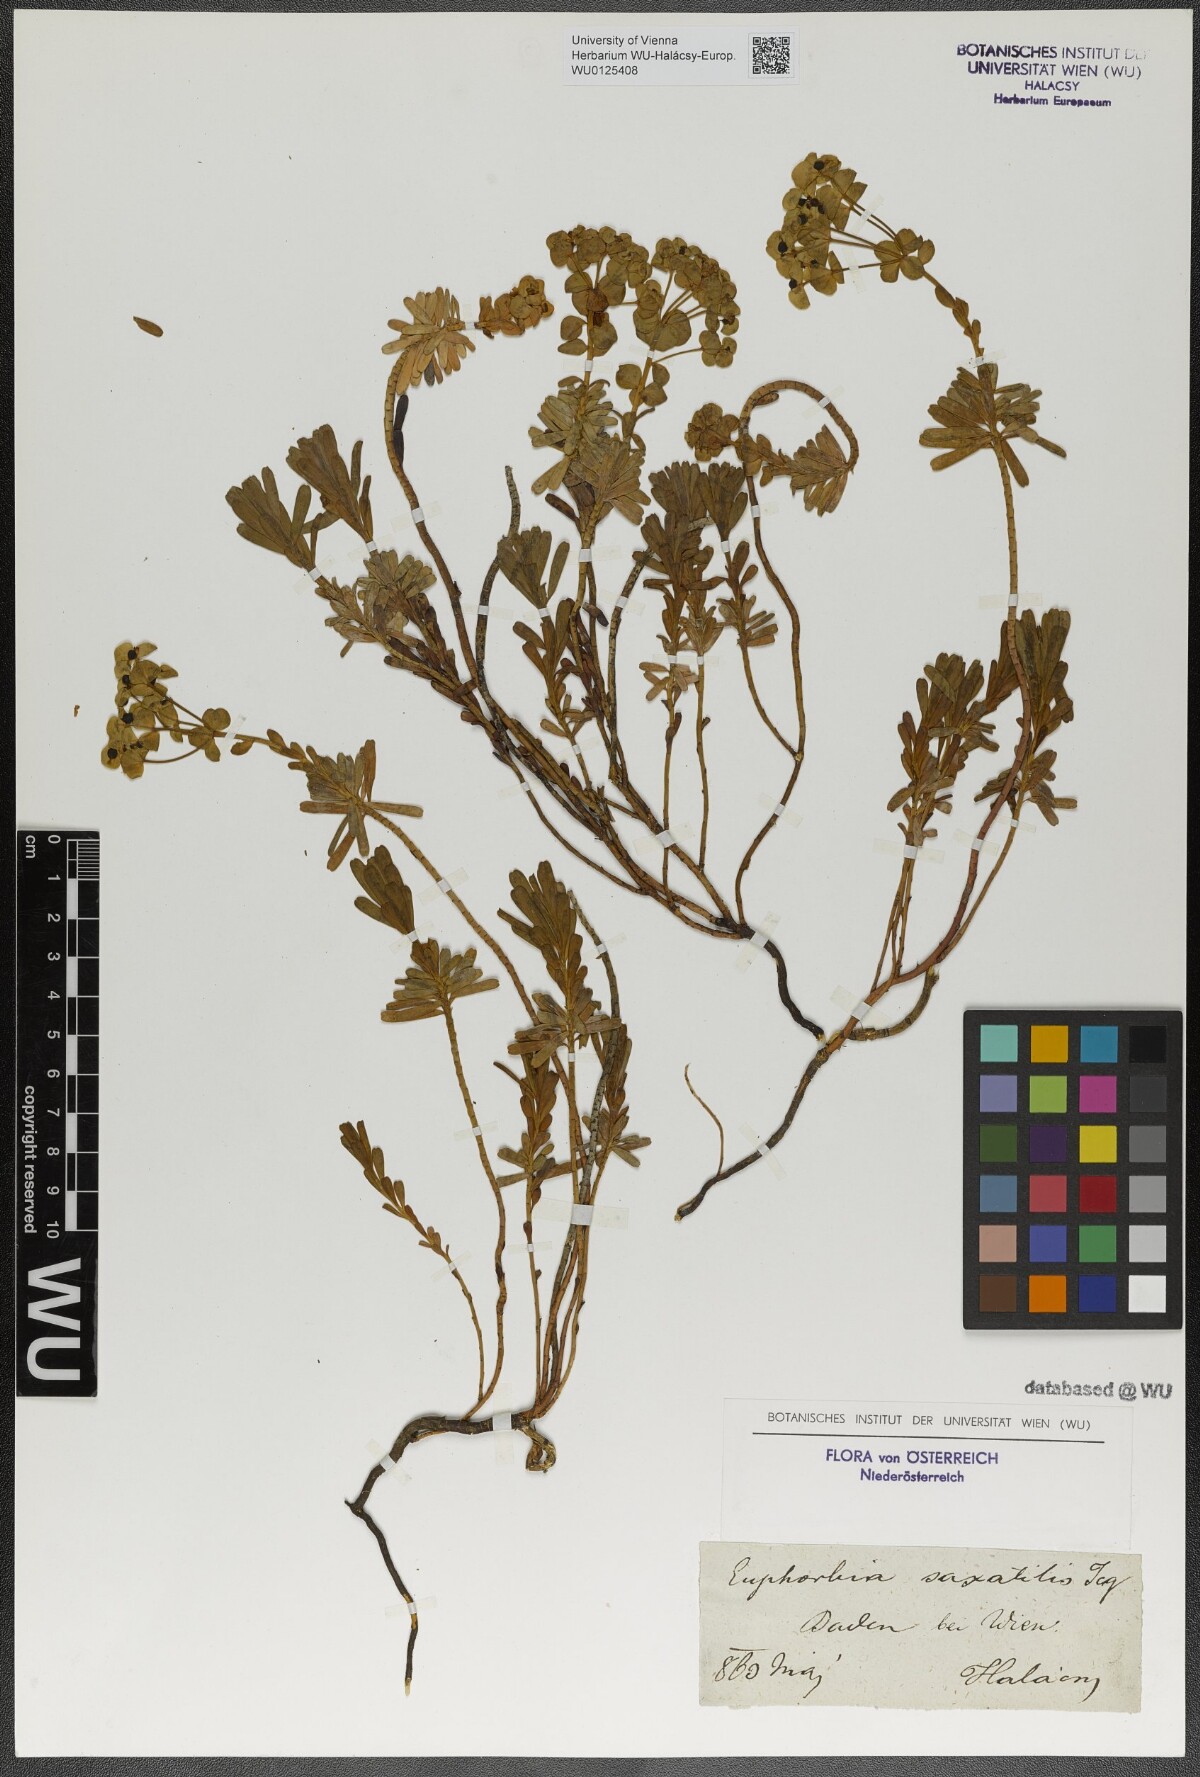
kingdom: Plantae
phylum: Tracheophyta
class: Magnoliopsida
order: Malpighiales
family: Euphorbiaceae
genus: Euphorbia
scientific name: Euphorbia saxatilis
